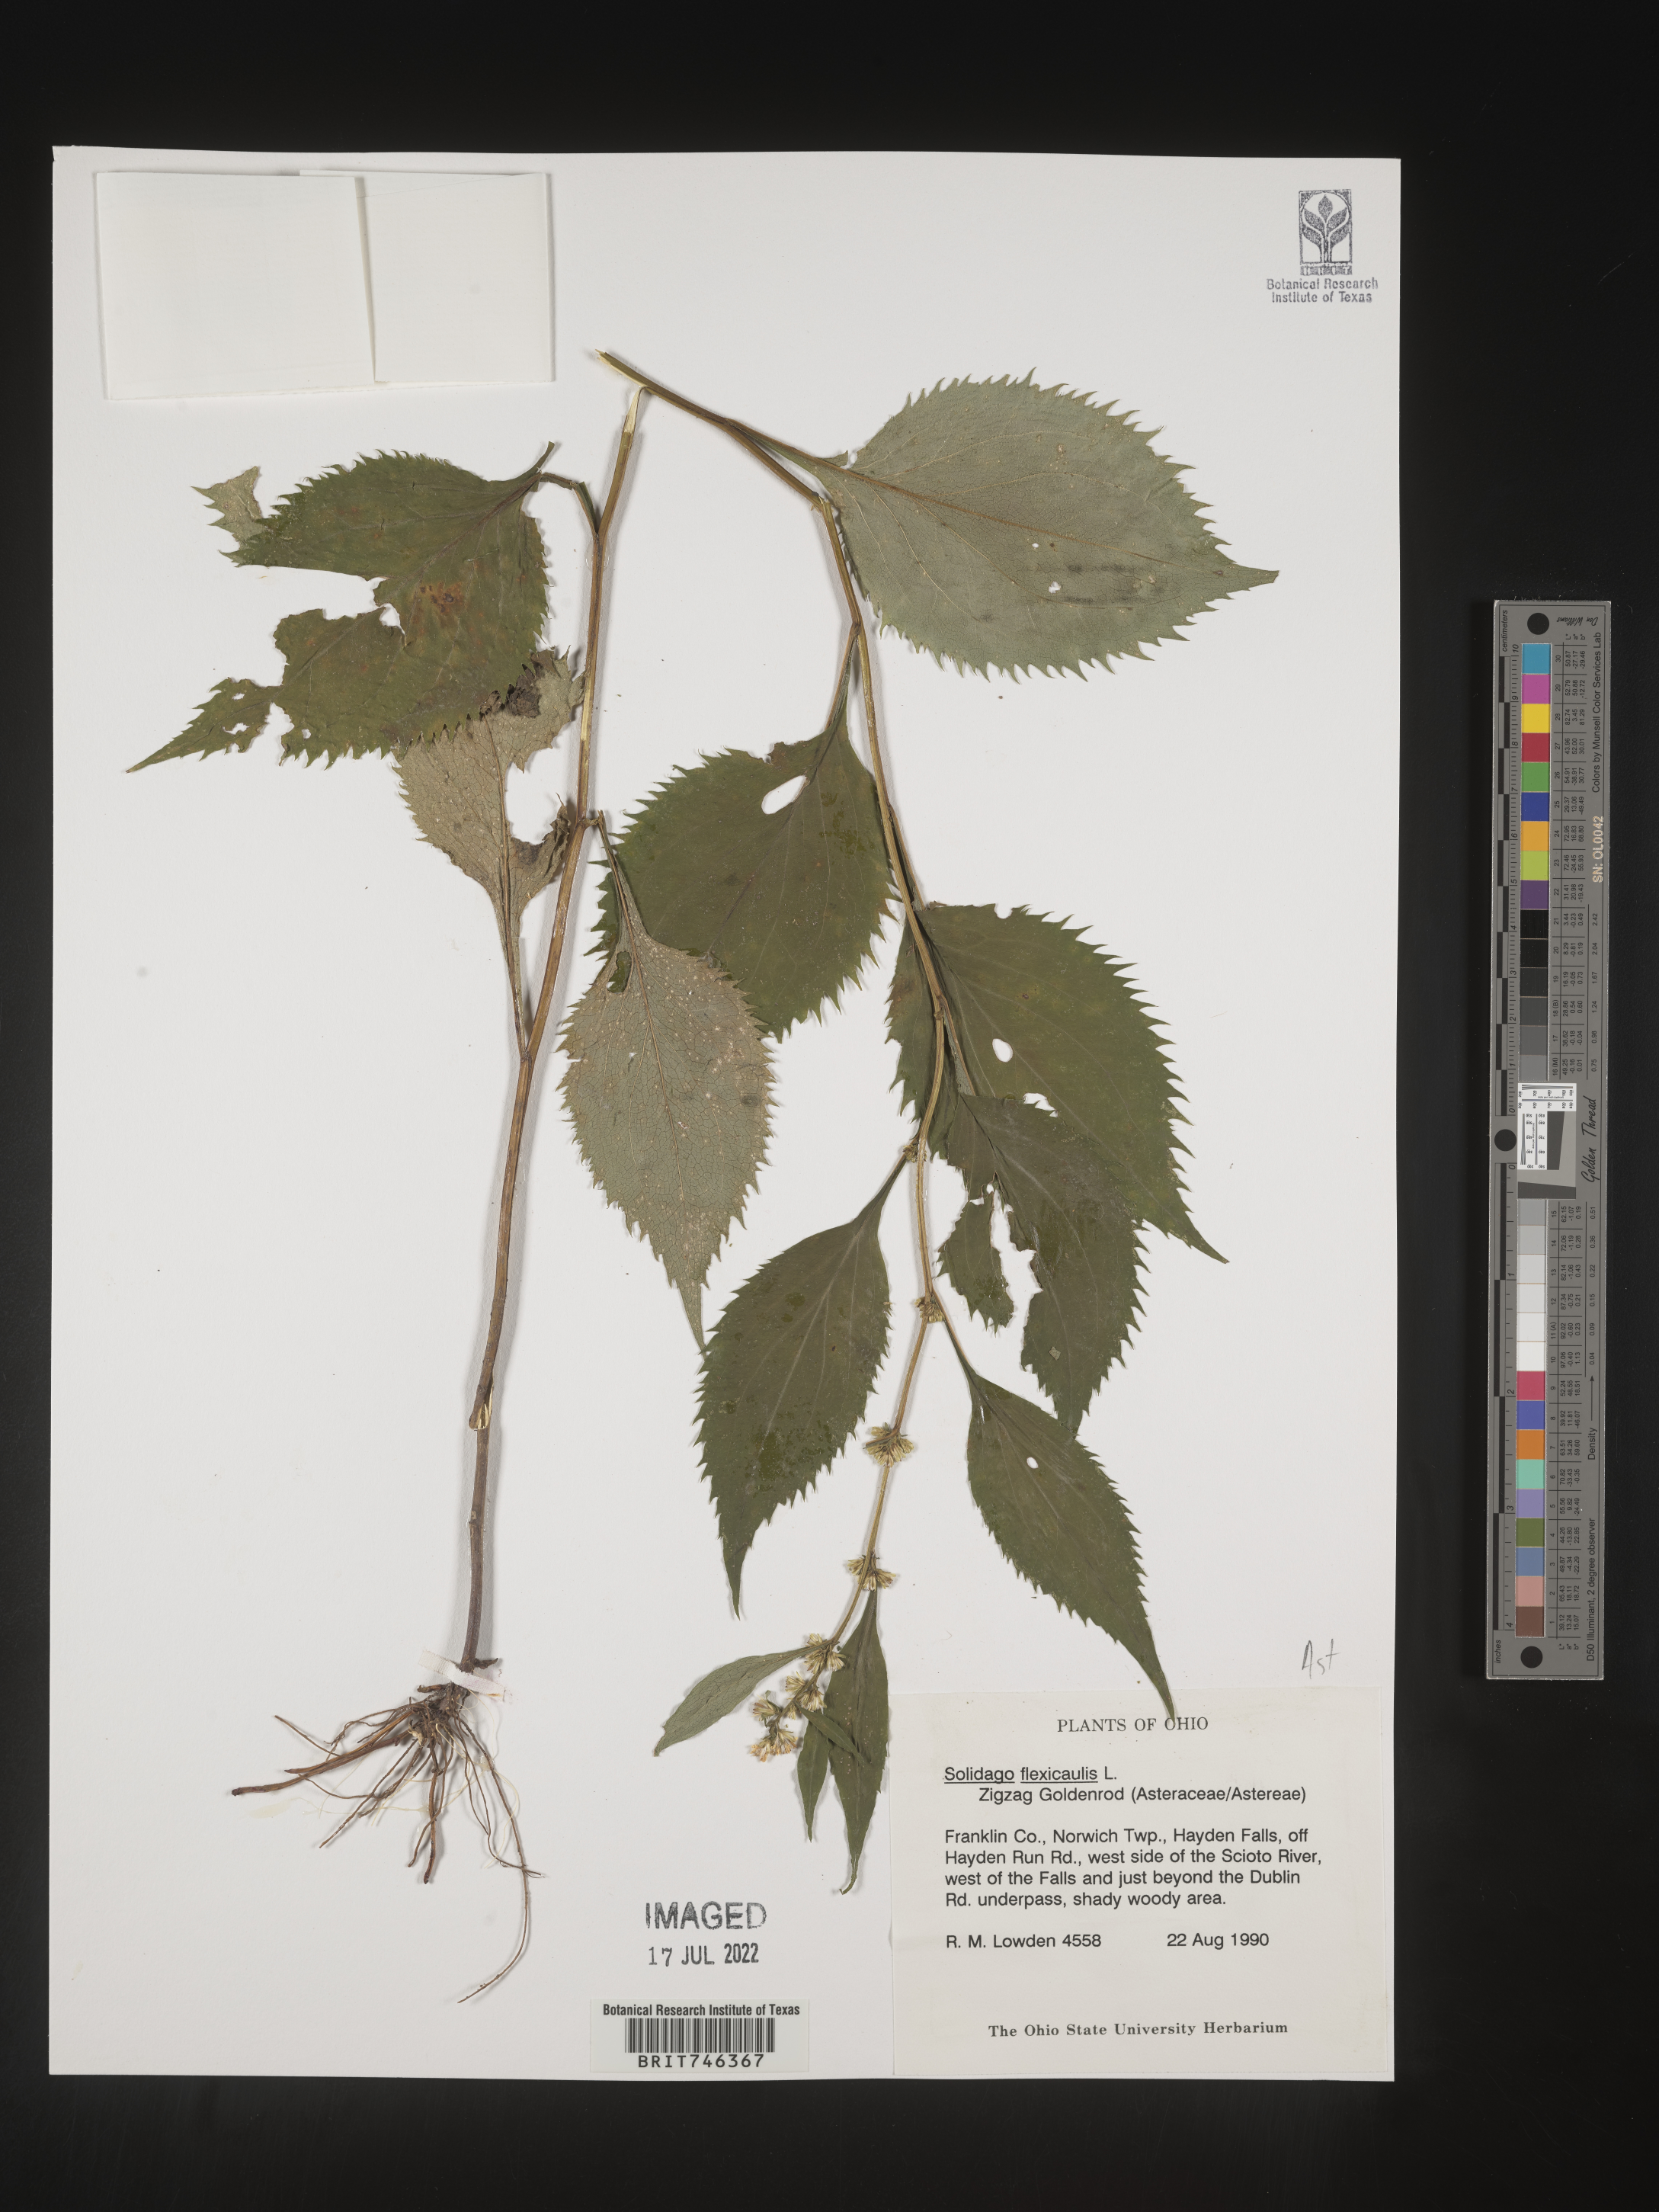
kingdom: Plantae
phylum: Tracheophyta
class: Magnoliopsida
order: Asterales
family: Asteraceae
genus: Solidago
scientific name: Solidago flexicaulis
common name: Zig-zag goldenrod
